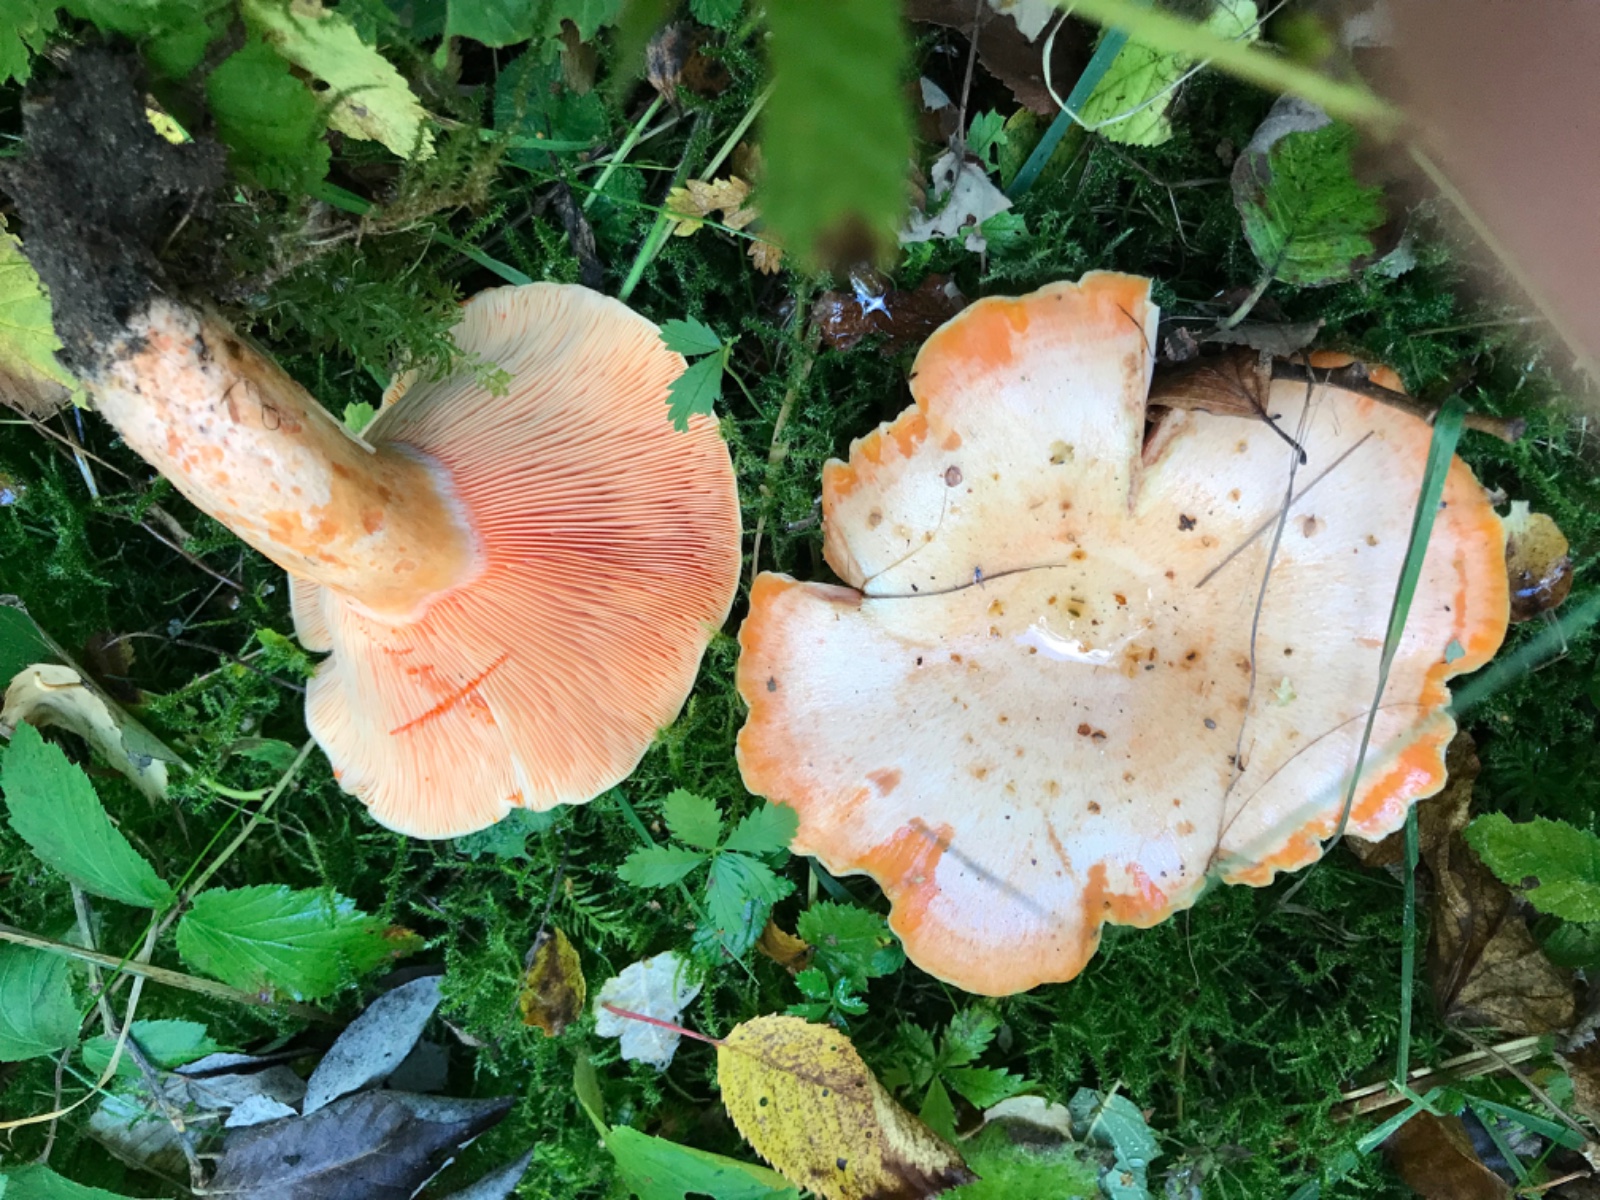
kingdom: Fungi
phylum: Basidiomycota
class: Agaricomycetes
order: Russulales
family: Russulaceae
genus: Lactarius
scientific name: Lactarius deliciosus
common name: velsmagende mælkehat
